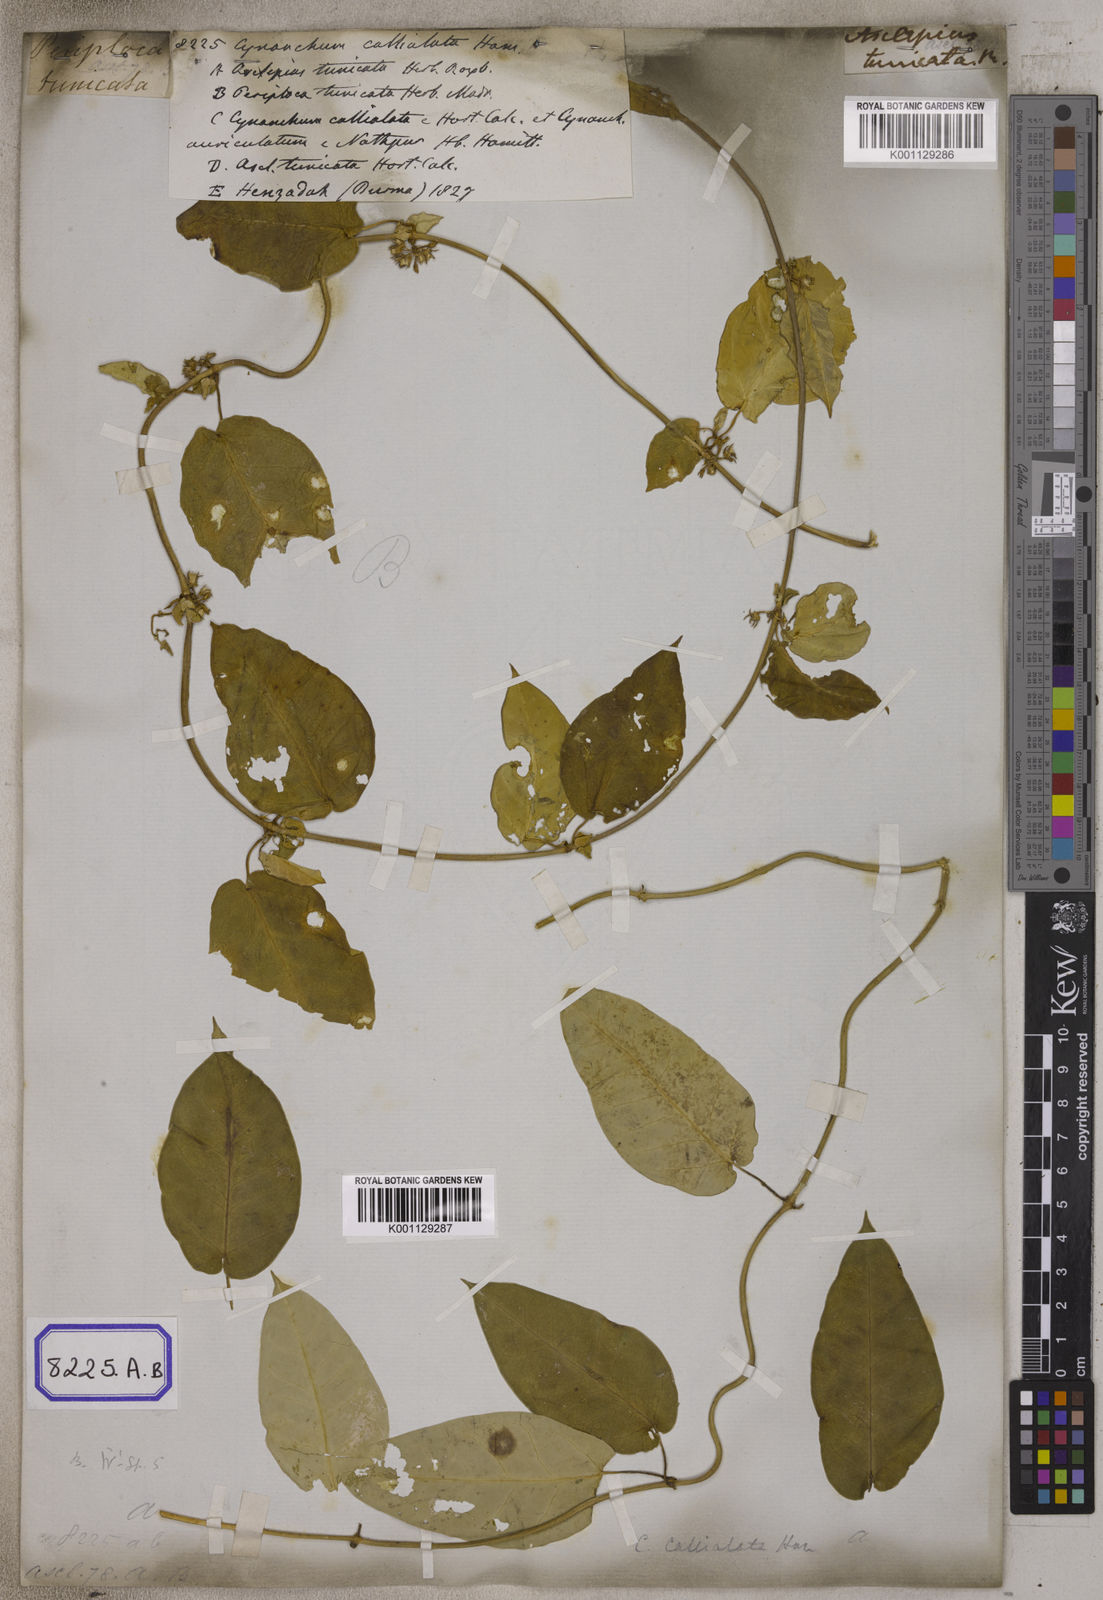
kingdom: Plantae
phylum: Tracheophyta
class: Magnoliopsida
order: Gentianales
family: Apocynaceae
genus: Cynanchum
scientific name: Cynanchum tunicatum
